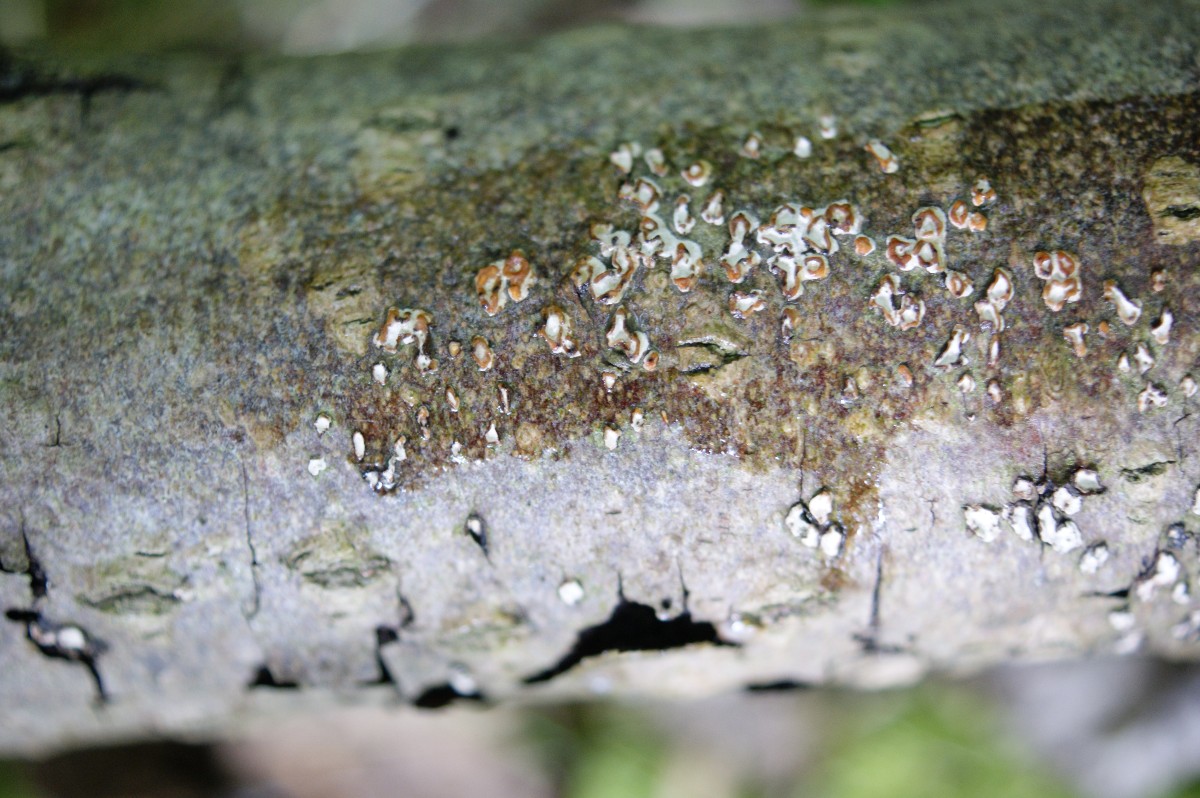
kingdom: Fungi
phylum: Basidiomycota
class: Agaricomycetes
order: Russulales
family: Peniophoraceae
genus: Peniophora
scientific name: Peniophora polygonia
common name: polygon-voksskind
